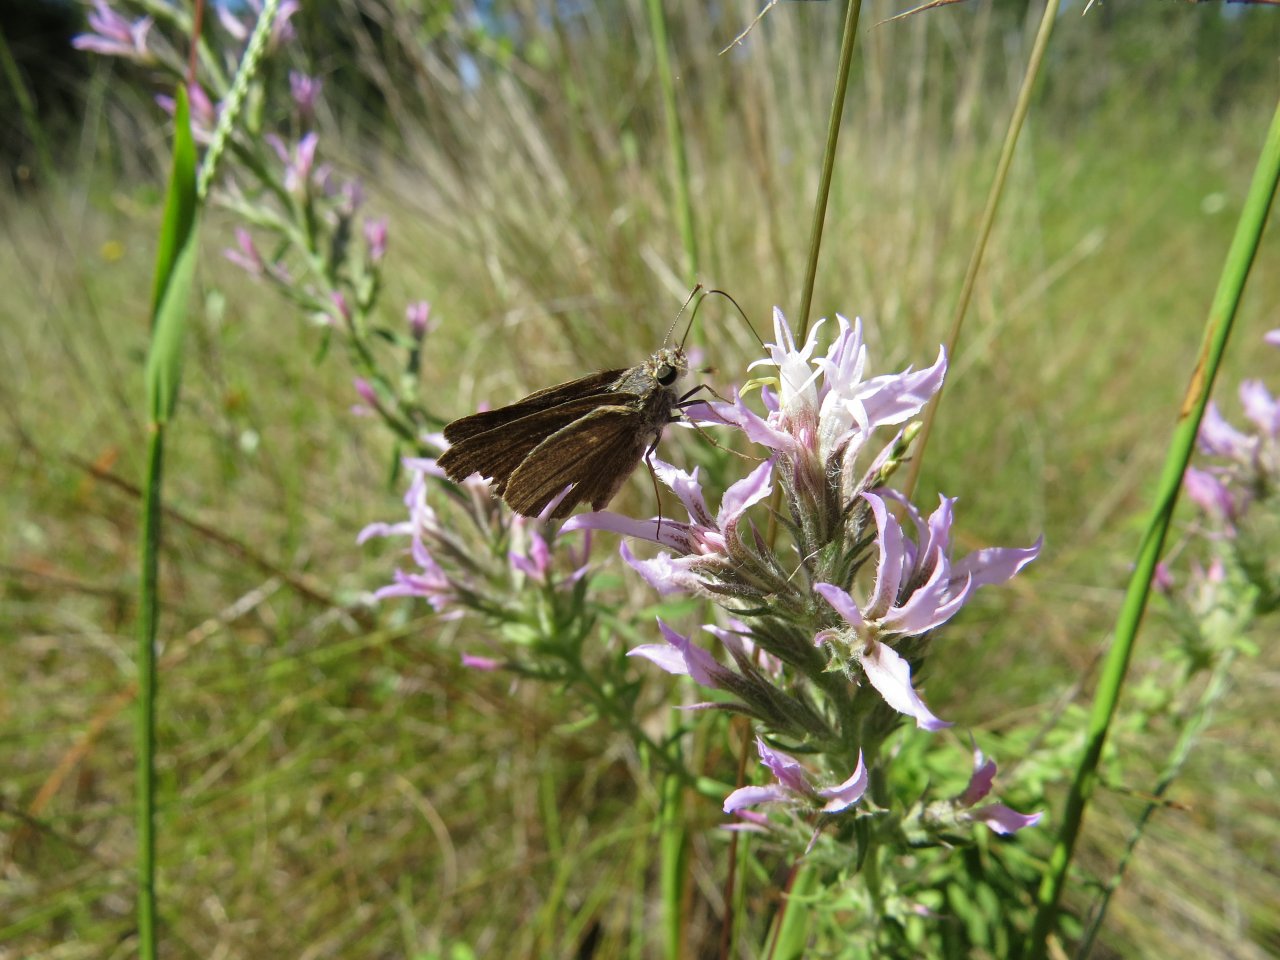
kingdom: Animalia
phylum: Arthropoda
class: Insecta
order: Lepidoptera
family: Hesperiidae
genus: Nastra
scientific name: Nastra lherminier
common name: Swarthy Skipper
